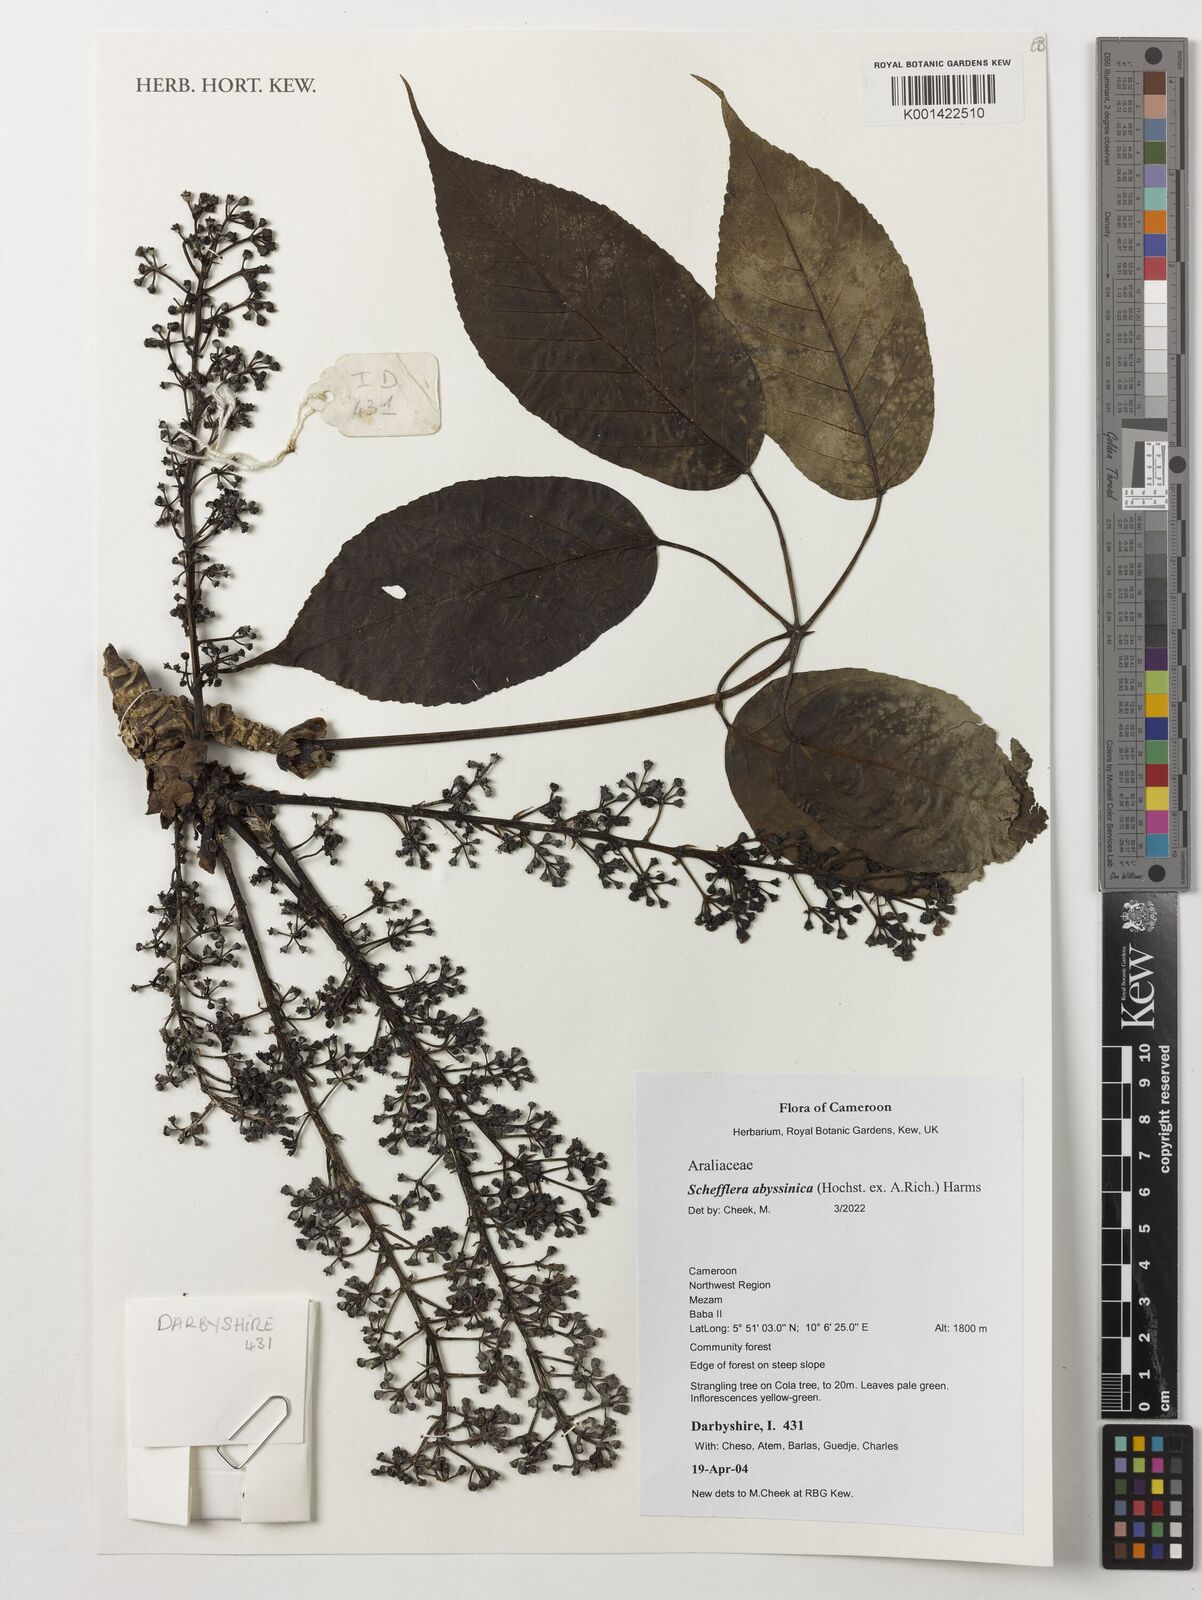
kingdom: Plantae
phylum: Tracheophyta
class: Magnoliopsida
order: Apiales
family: Araliaceae
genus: Astropanax
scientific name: Astropanax abyssinicum
